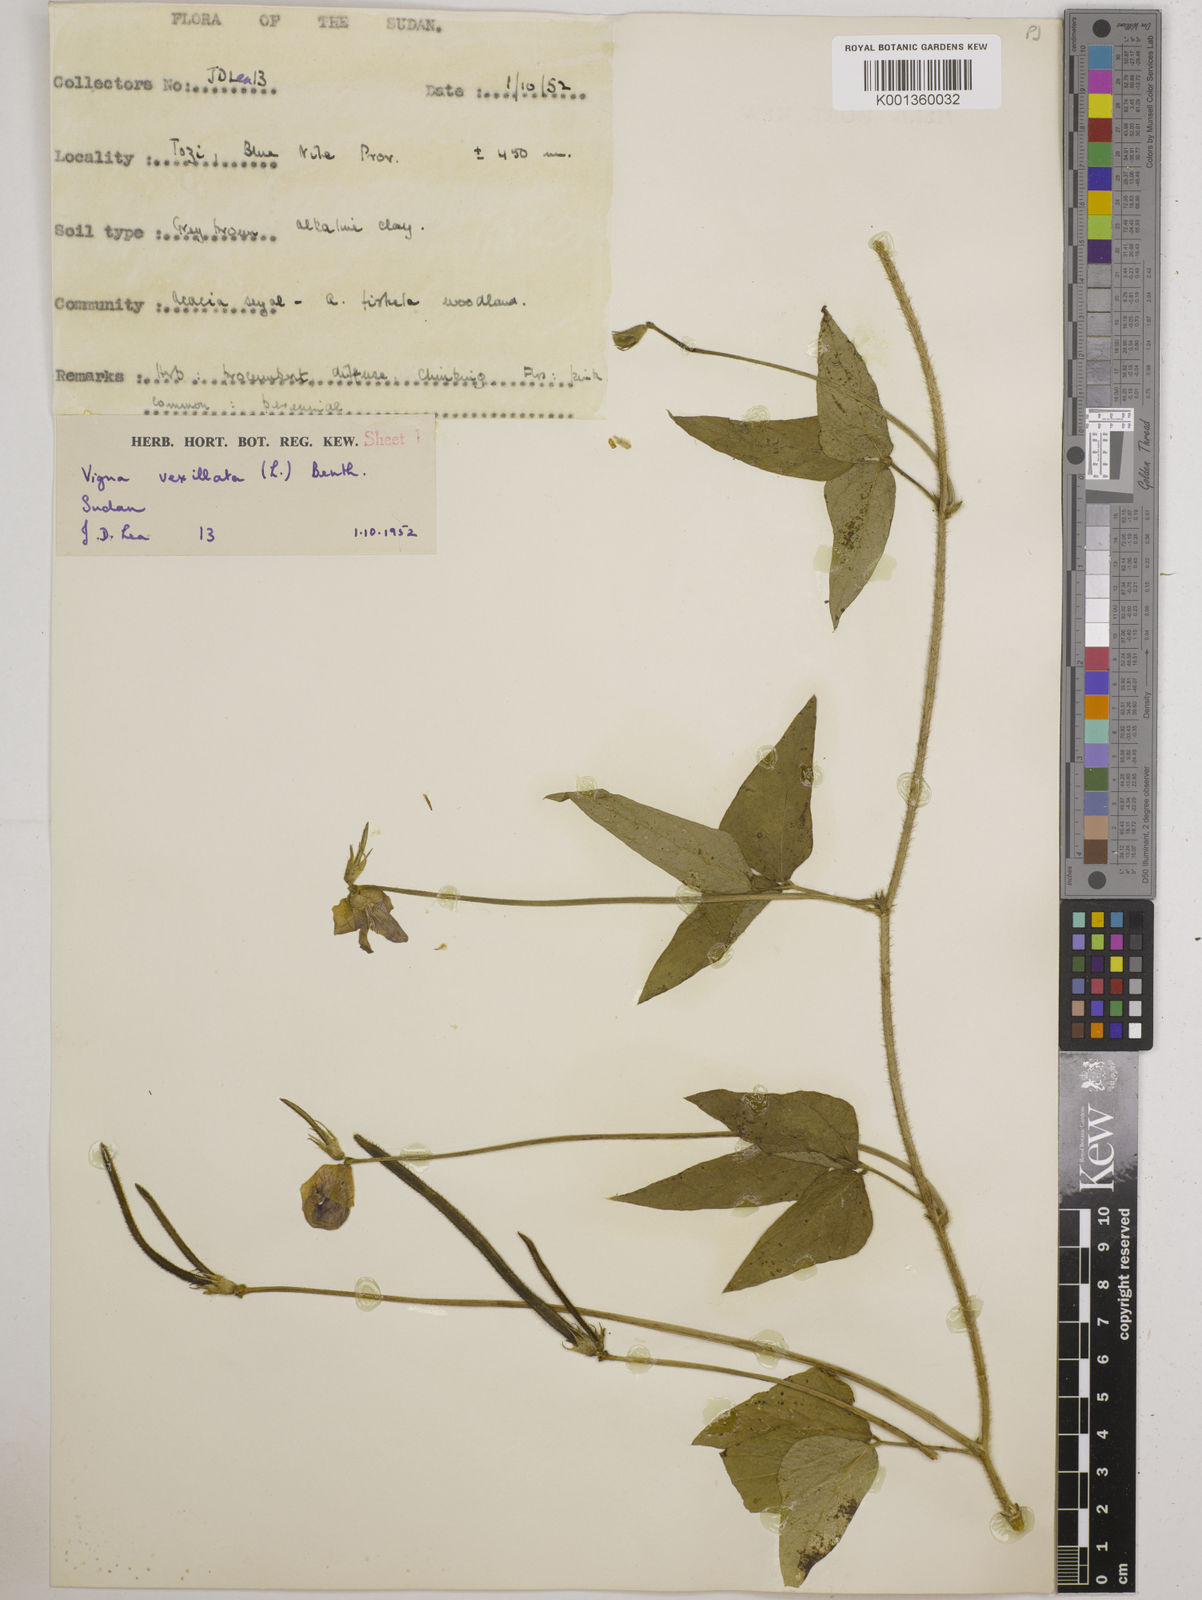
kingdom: Plantae
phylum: Tracheophyta
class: Magnoliopsida
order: Fabales
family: Fabaceae
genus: Vigna
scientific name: Vigna vexillata
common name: Zombi pea
